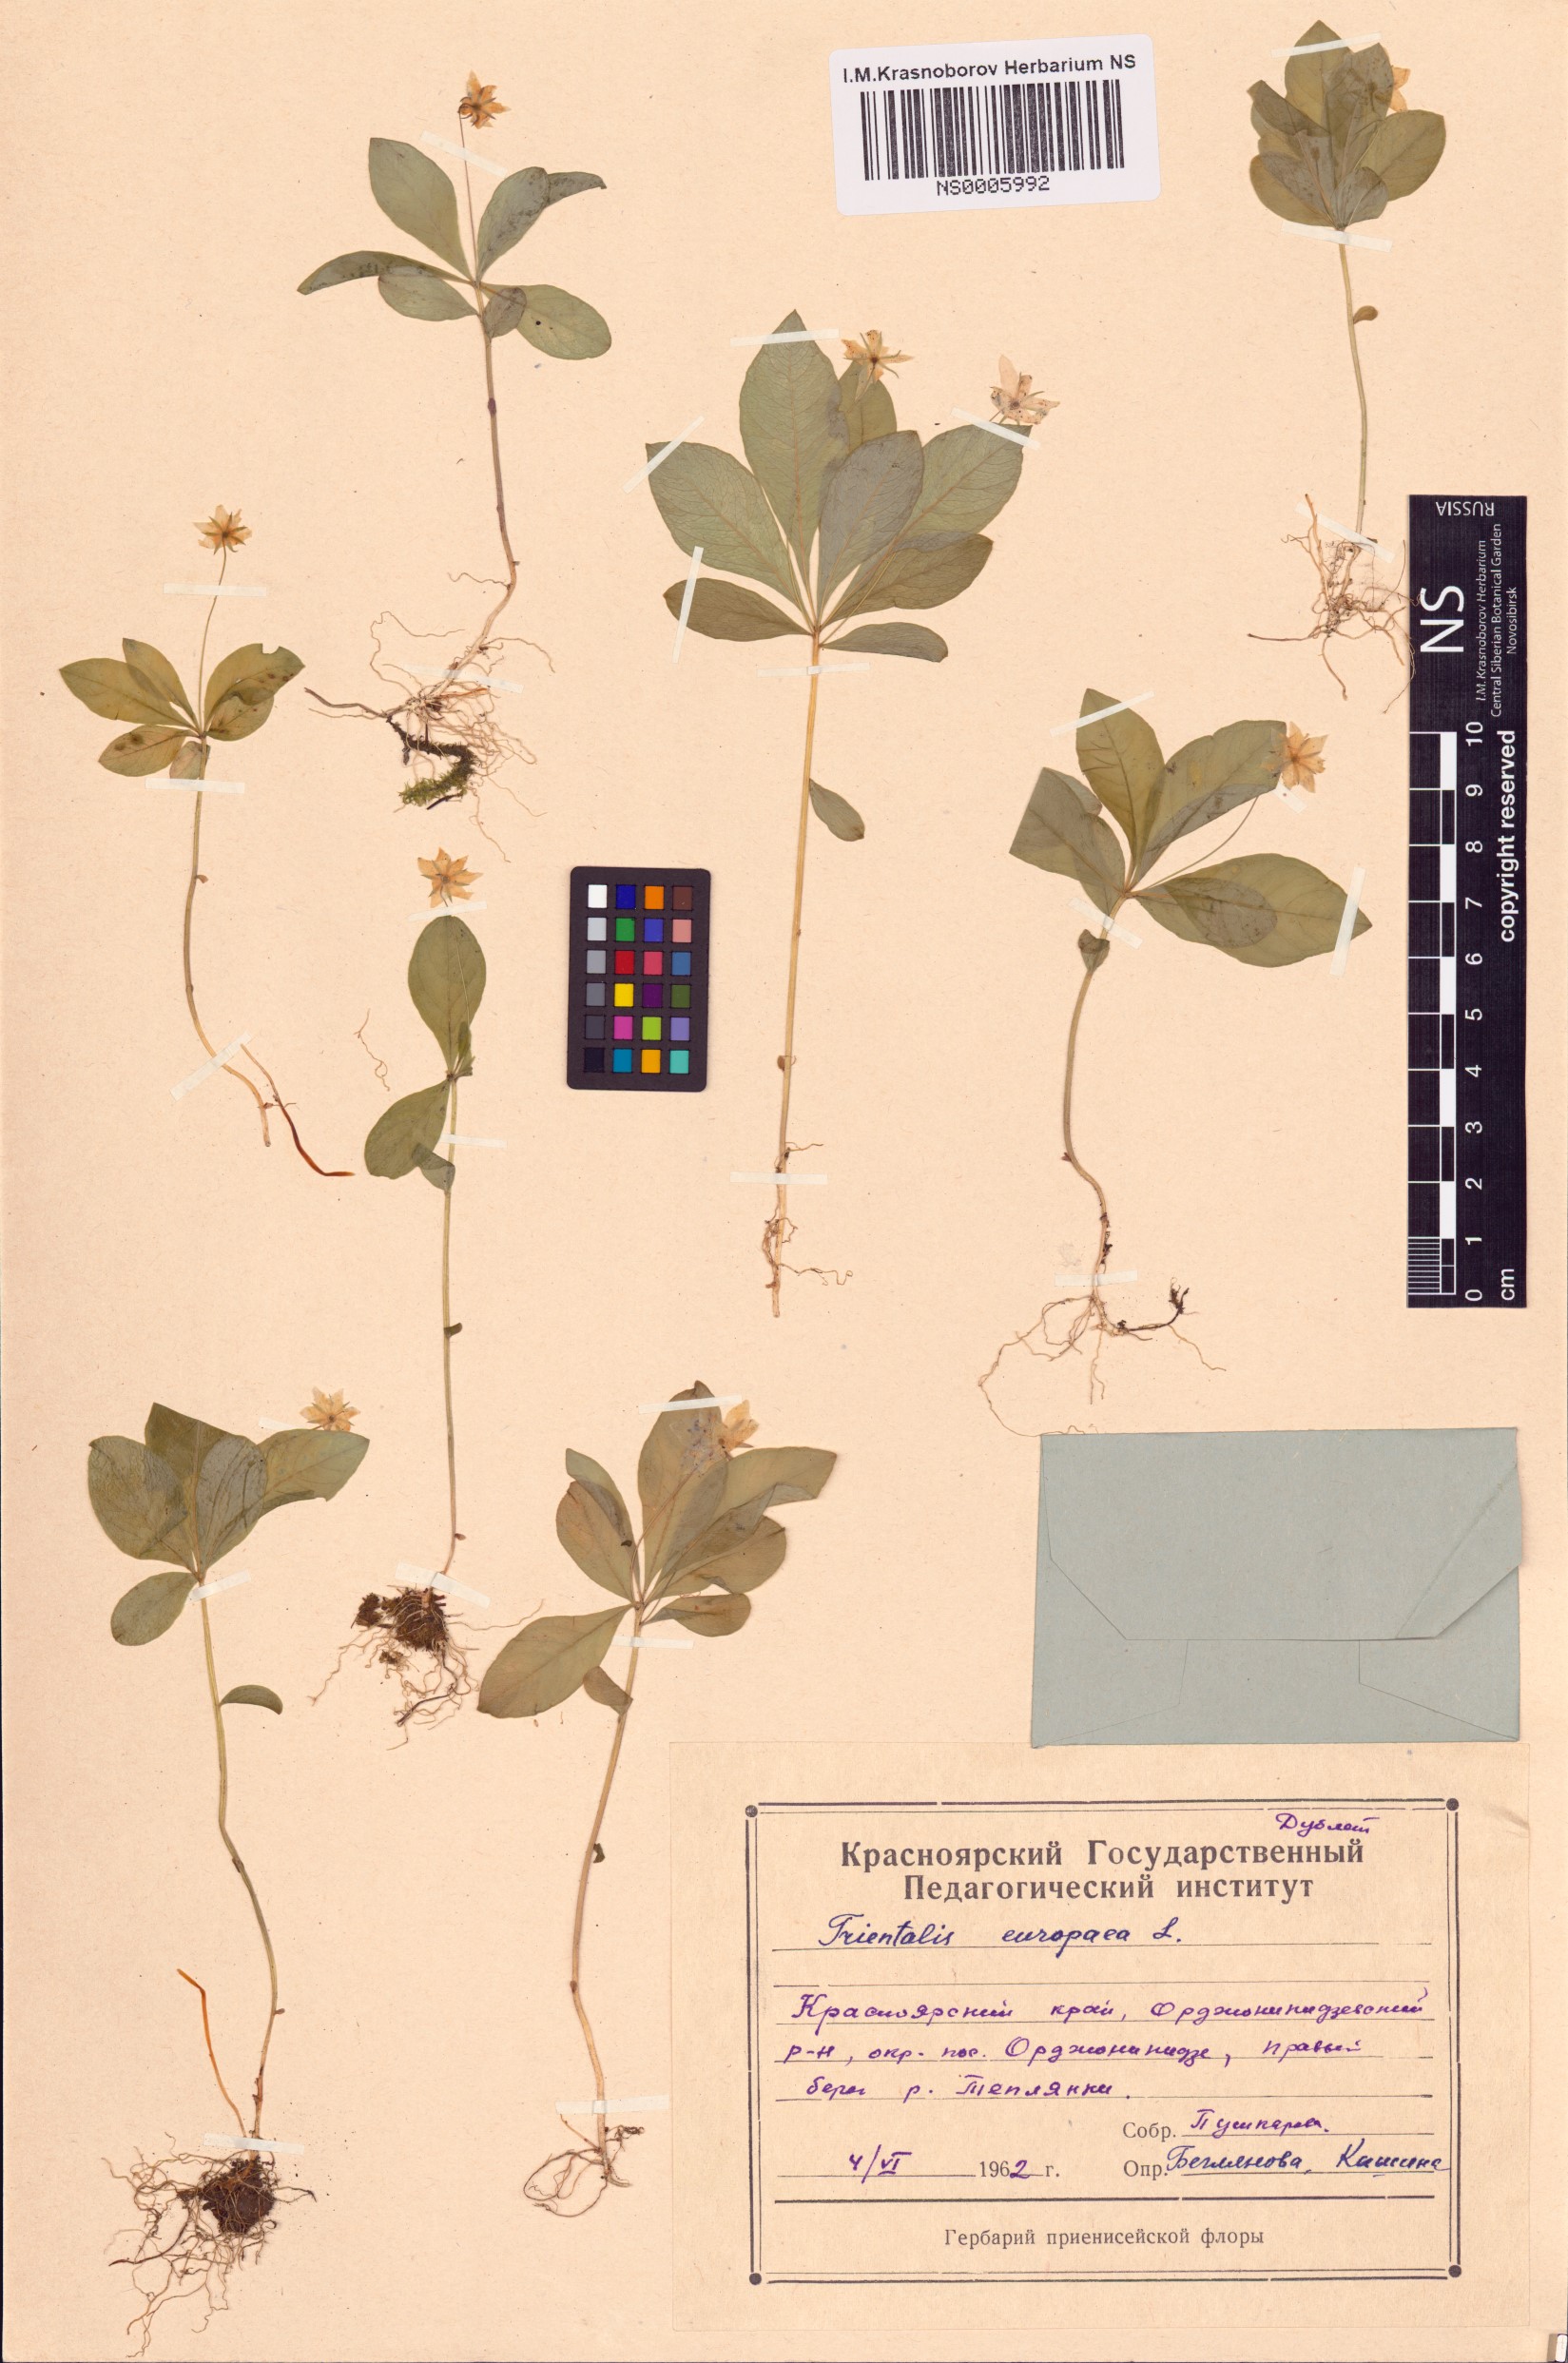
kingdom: Plantae
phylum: Tracheophyta
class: Magnoliopsida
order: Ericales
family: Primulaceae
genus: Lysimachia
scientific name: Lysimachia europaea
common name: Arctic starflower
